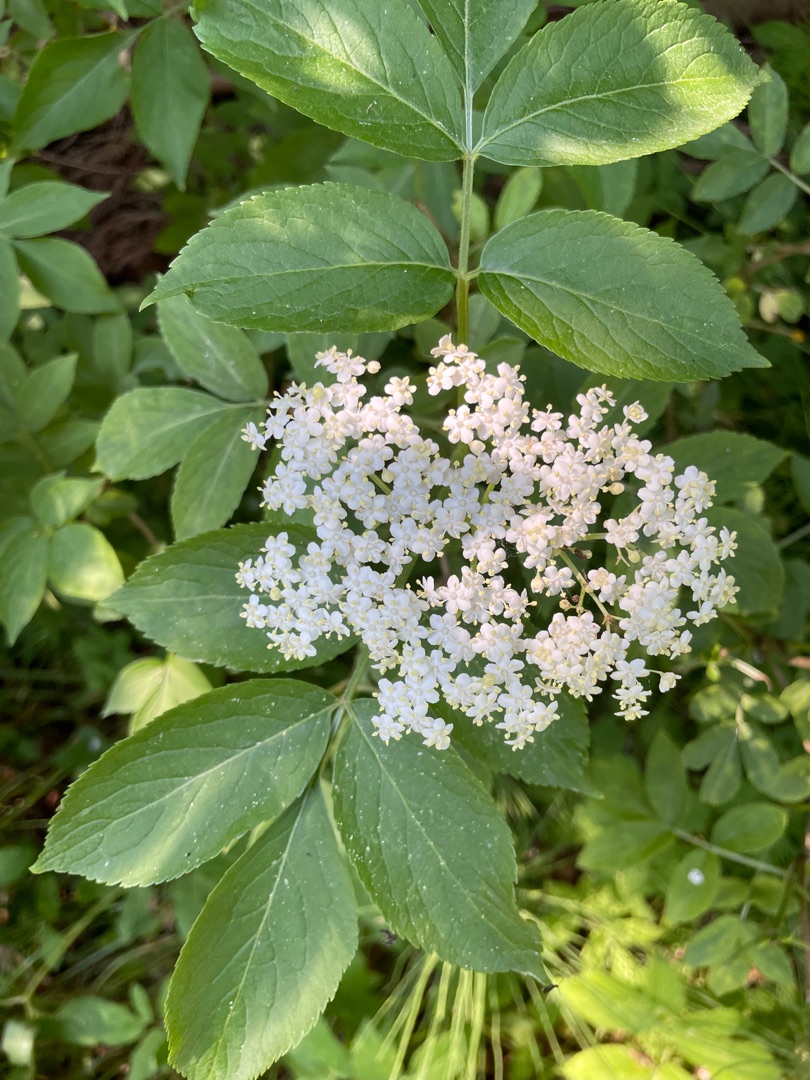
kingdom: Plantae
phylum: Tracheophyta
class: Magnoliopsida
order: Dipsacales
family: Viburnaceae
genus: Sambucus
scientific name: Sambucus nigra
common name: Almindelig hyld
